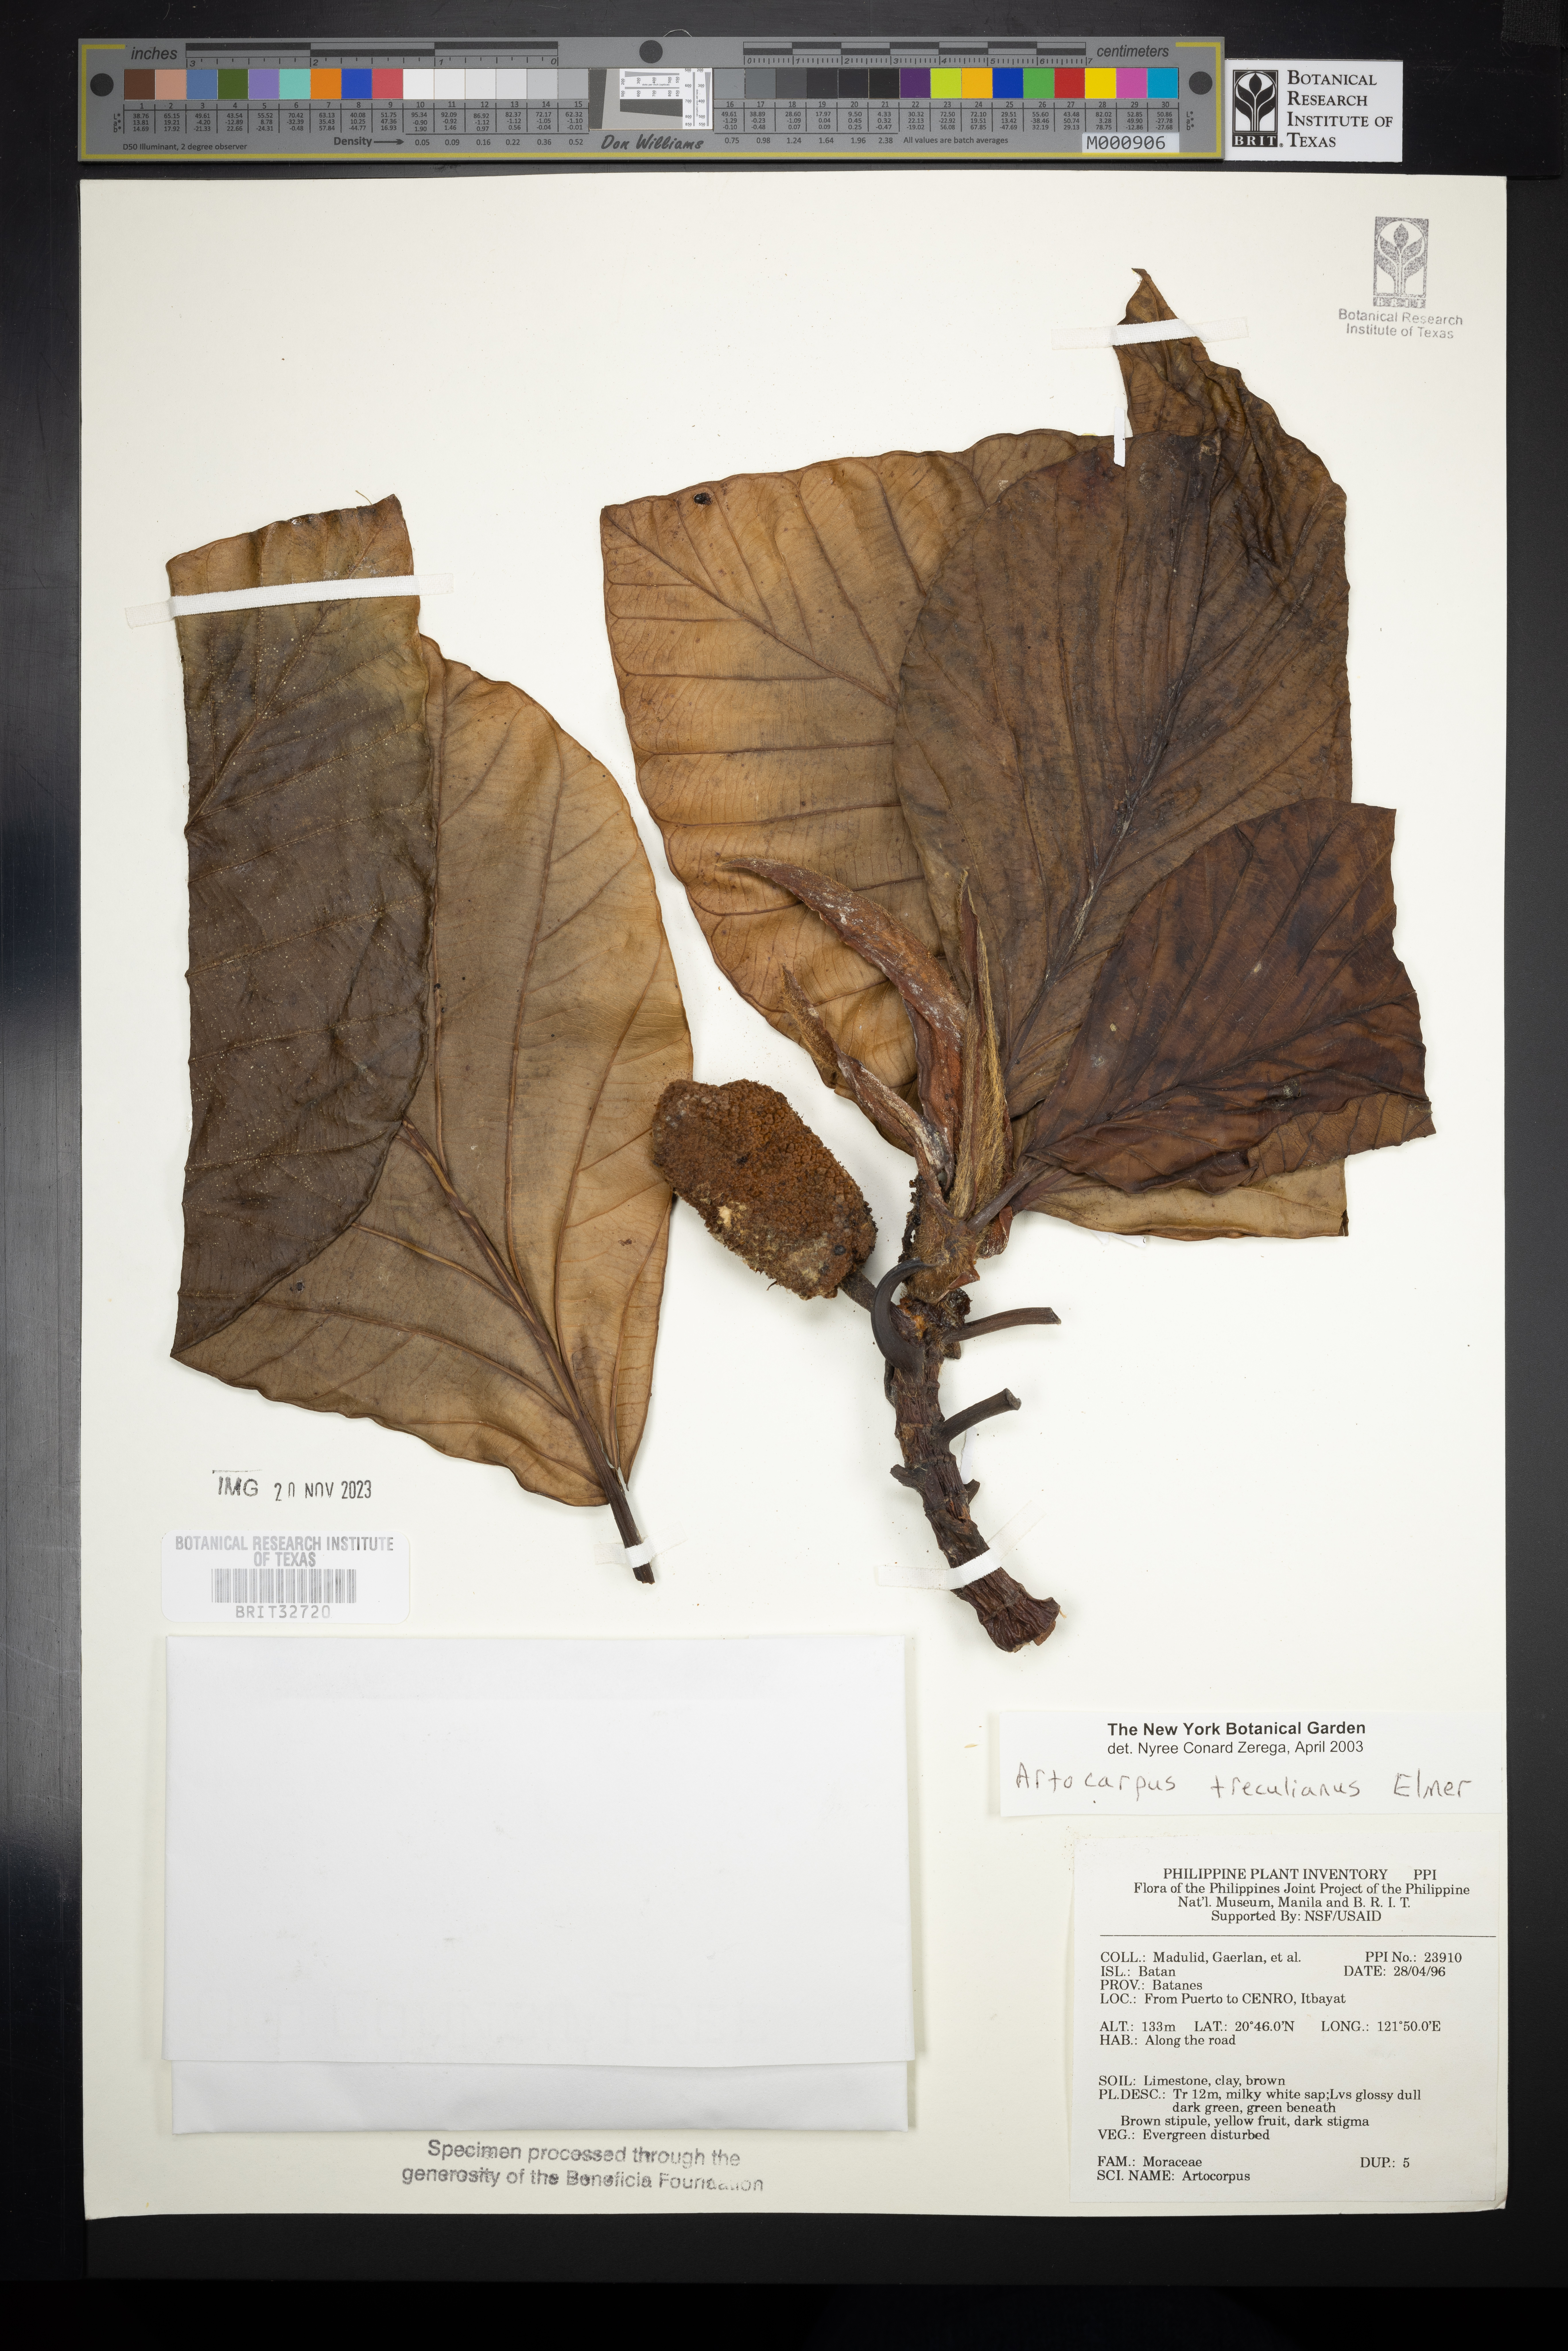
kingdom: Plantae
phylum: Tracheophyta
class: Magnoliopsida
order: Rosales
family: Moraceae
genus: Artocarpus
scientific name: Artocarpus treculianus
